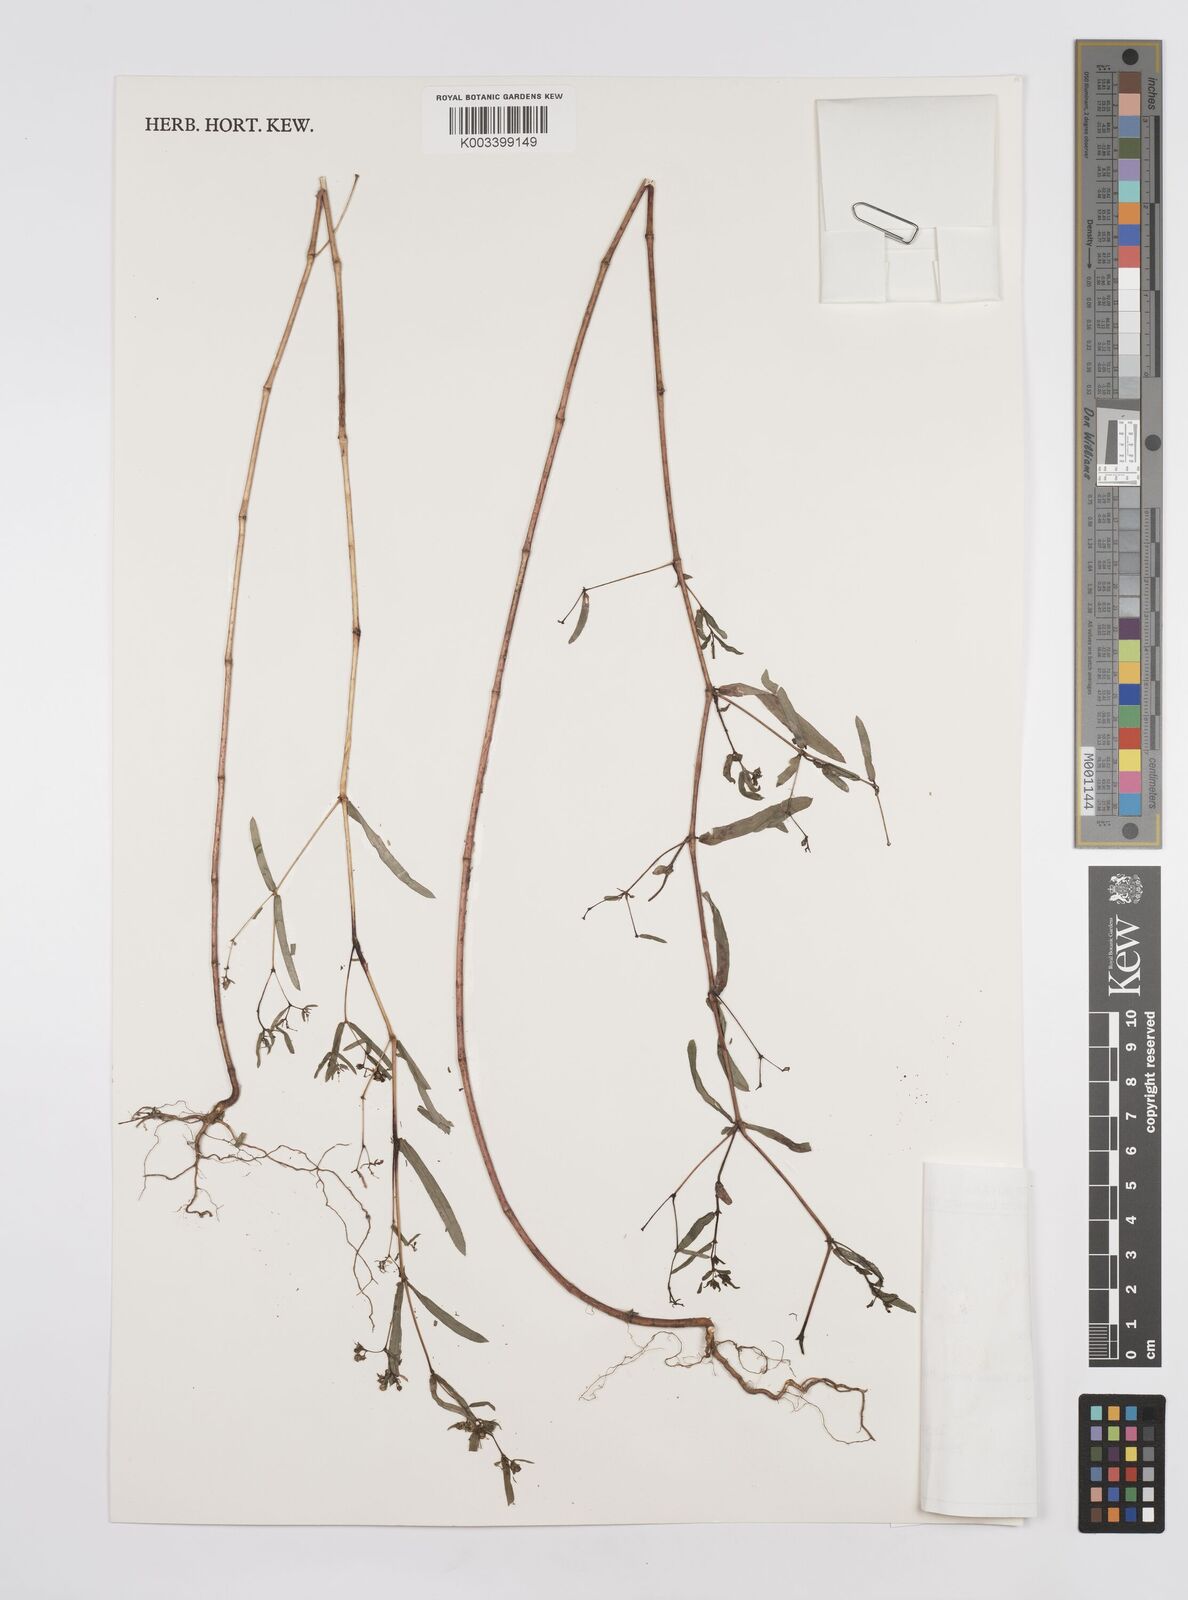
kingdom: Plantae
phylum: Tracheophyta
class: Magnoliopsida
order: Malpighiales
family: Euphorbiaceae
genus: Euphorbia
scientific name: Euphorbia hyssopifolia
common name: Hyssopleaf sandmat
